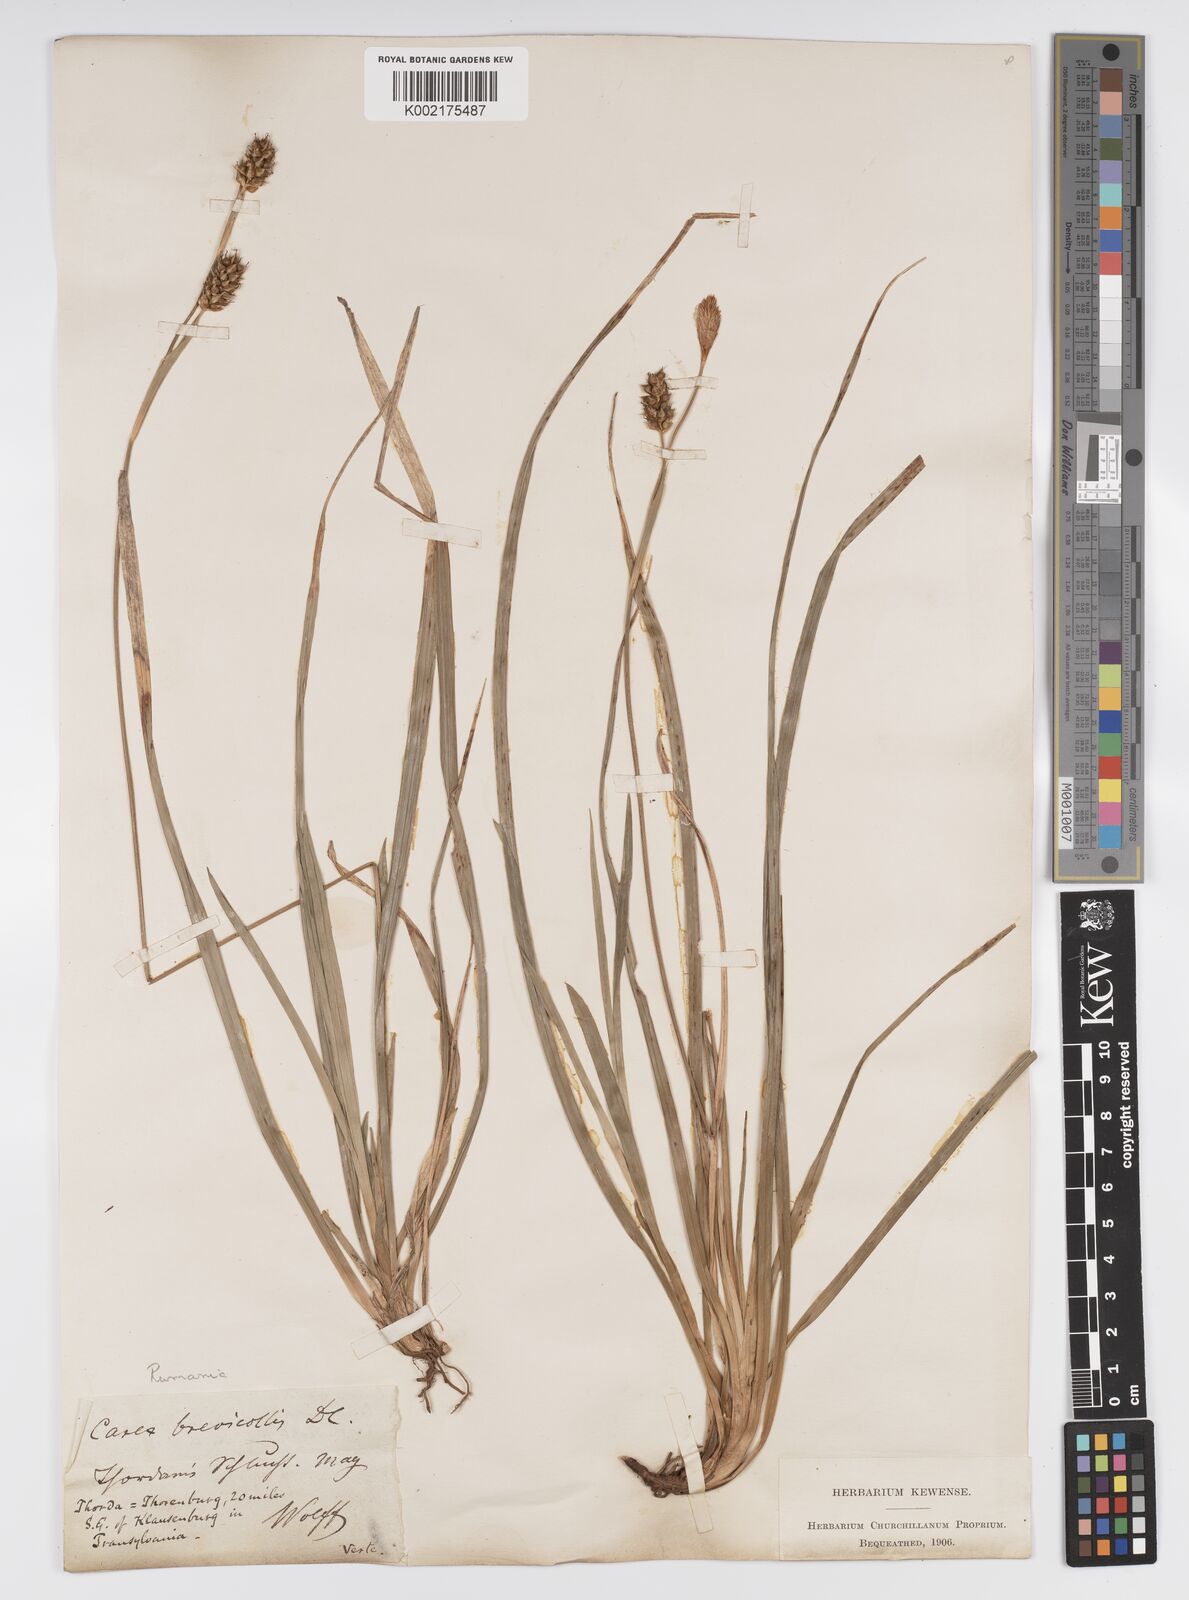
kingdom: Plantae
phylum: Tracheophyta
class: Liliopsida
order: Poales
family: Cyperaceae
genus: Carex
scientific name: Carex brevicollis
